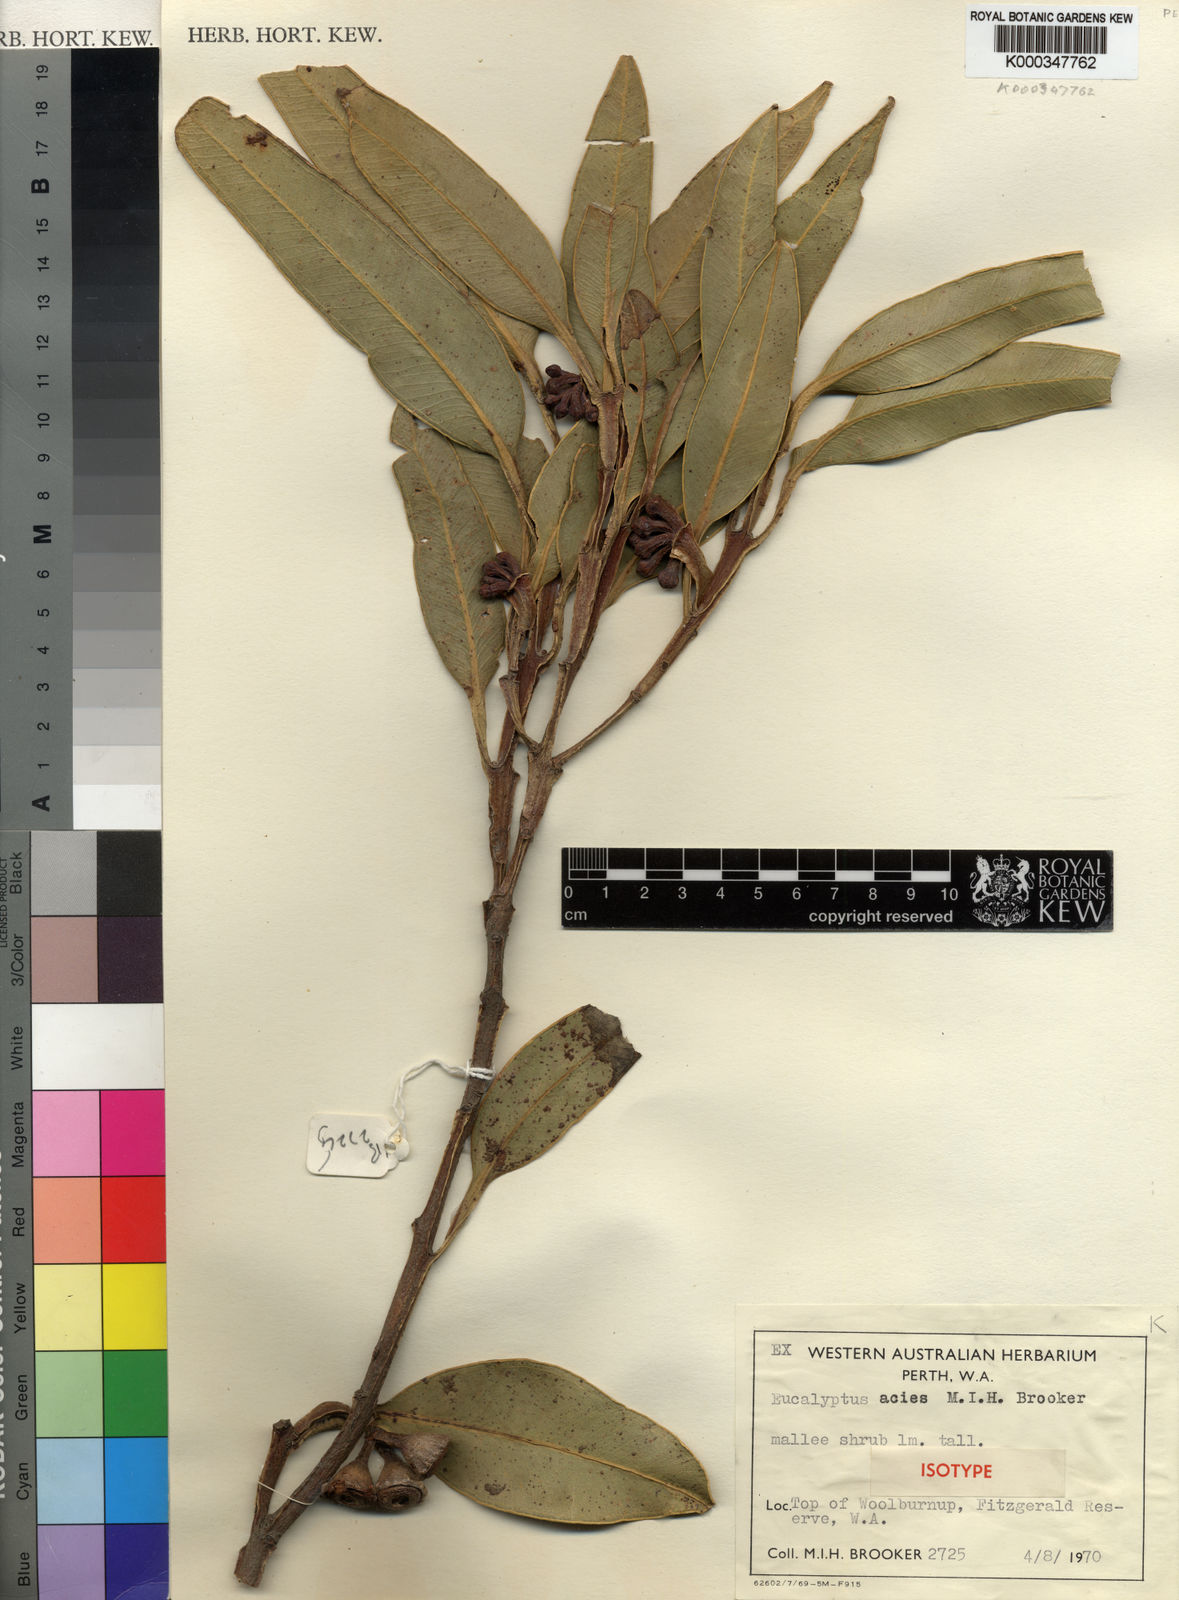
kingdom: Plantae
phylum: Tracheophyta
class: Magnoliopsida
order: Myrtales
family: Myrtaceae
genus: Eucalyptus
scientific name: Eucalyptus acies
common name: Woolbernup mallee
